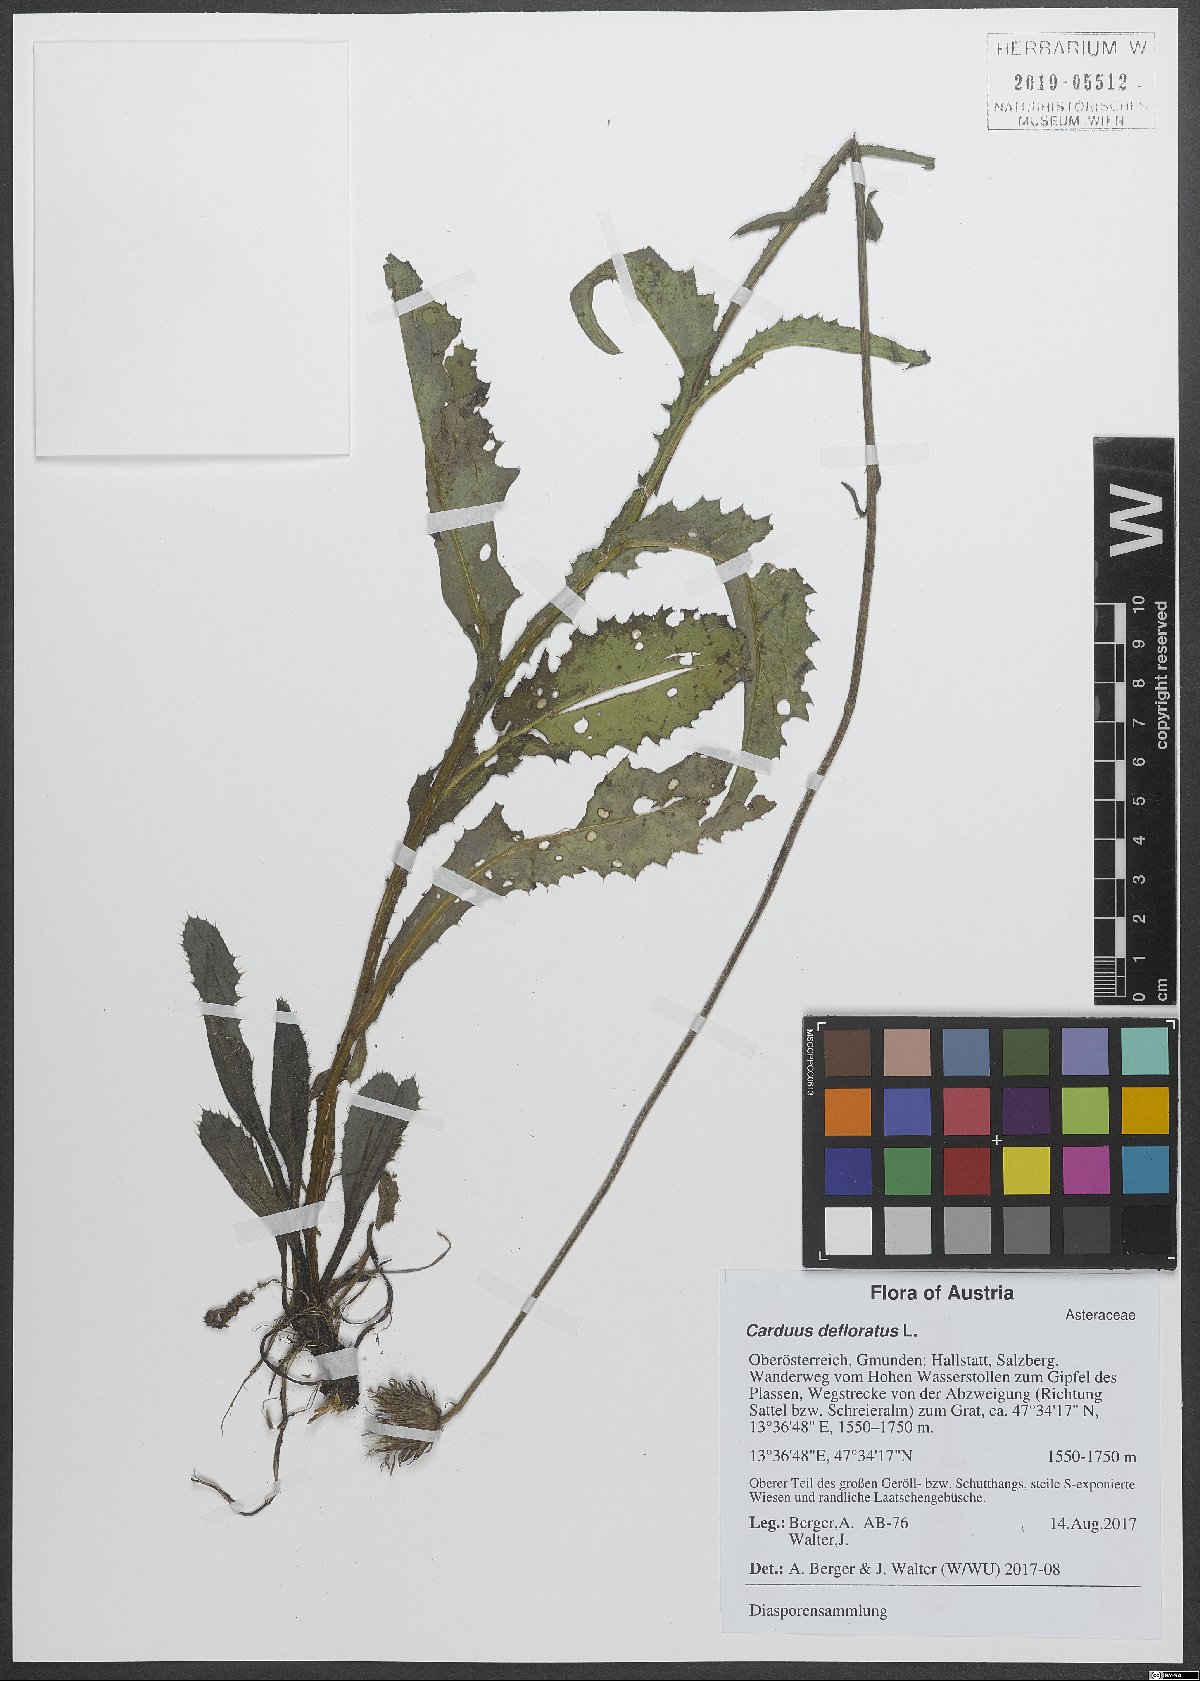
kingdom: Plantae
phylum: Tracheophyta
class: Magnoliopsida
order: Asterales
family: Asteraceae
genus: Carduus
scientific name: Carduus defloratus
